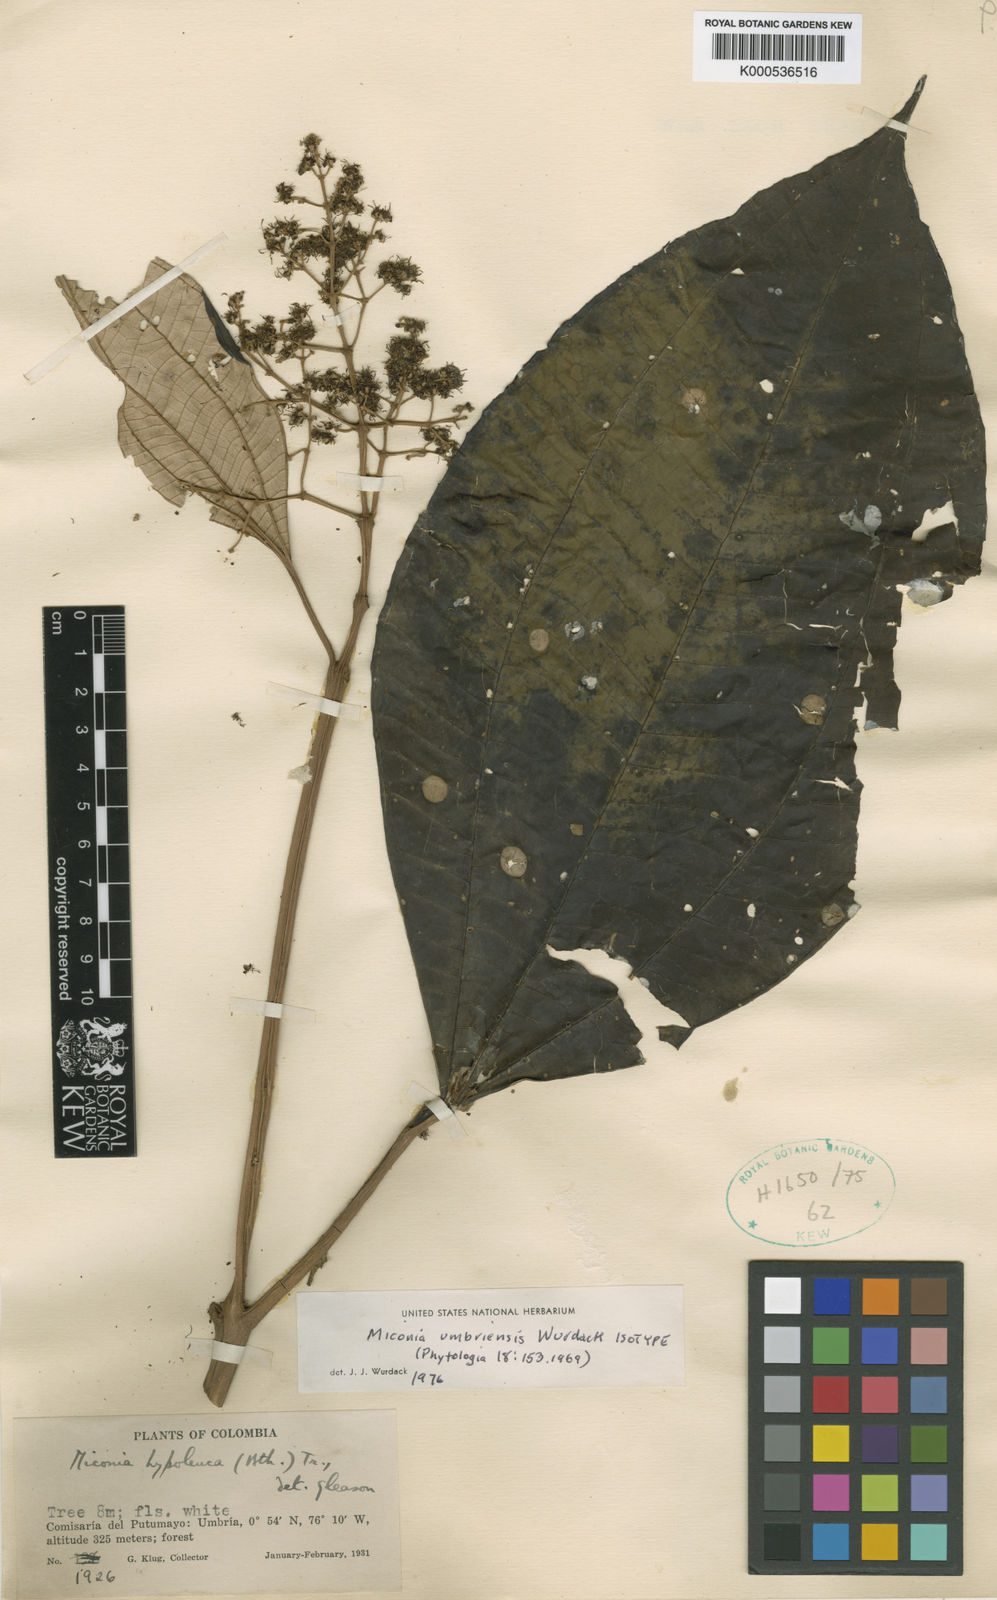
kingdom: Plantae
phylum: Tracheophyta
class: Magnoliopsida
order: Myrtales
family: Melastomataceae
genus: Miconia
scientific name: Miconia umbriensis
